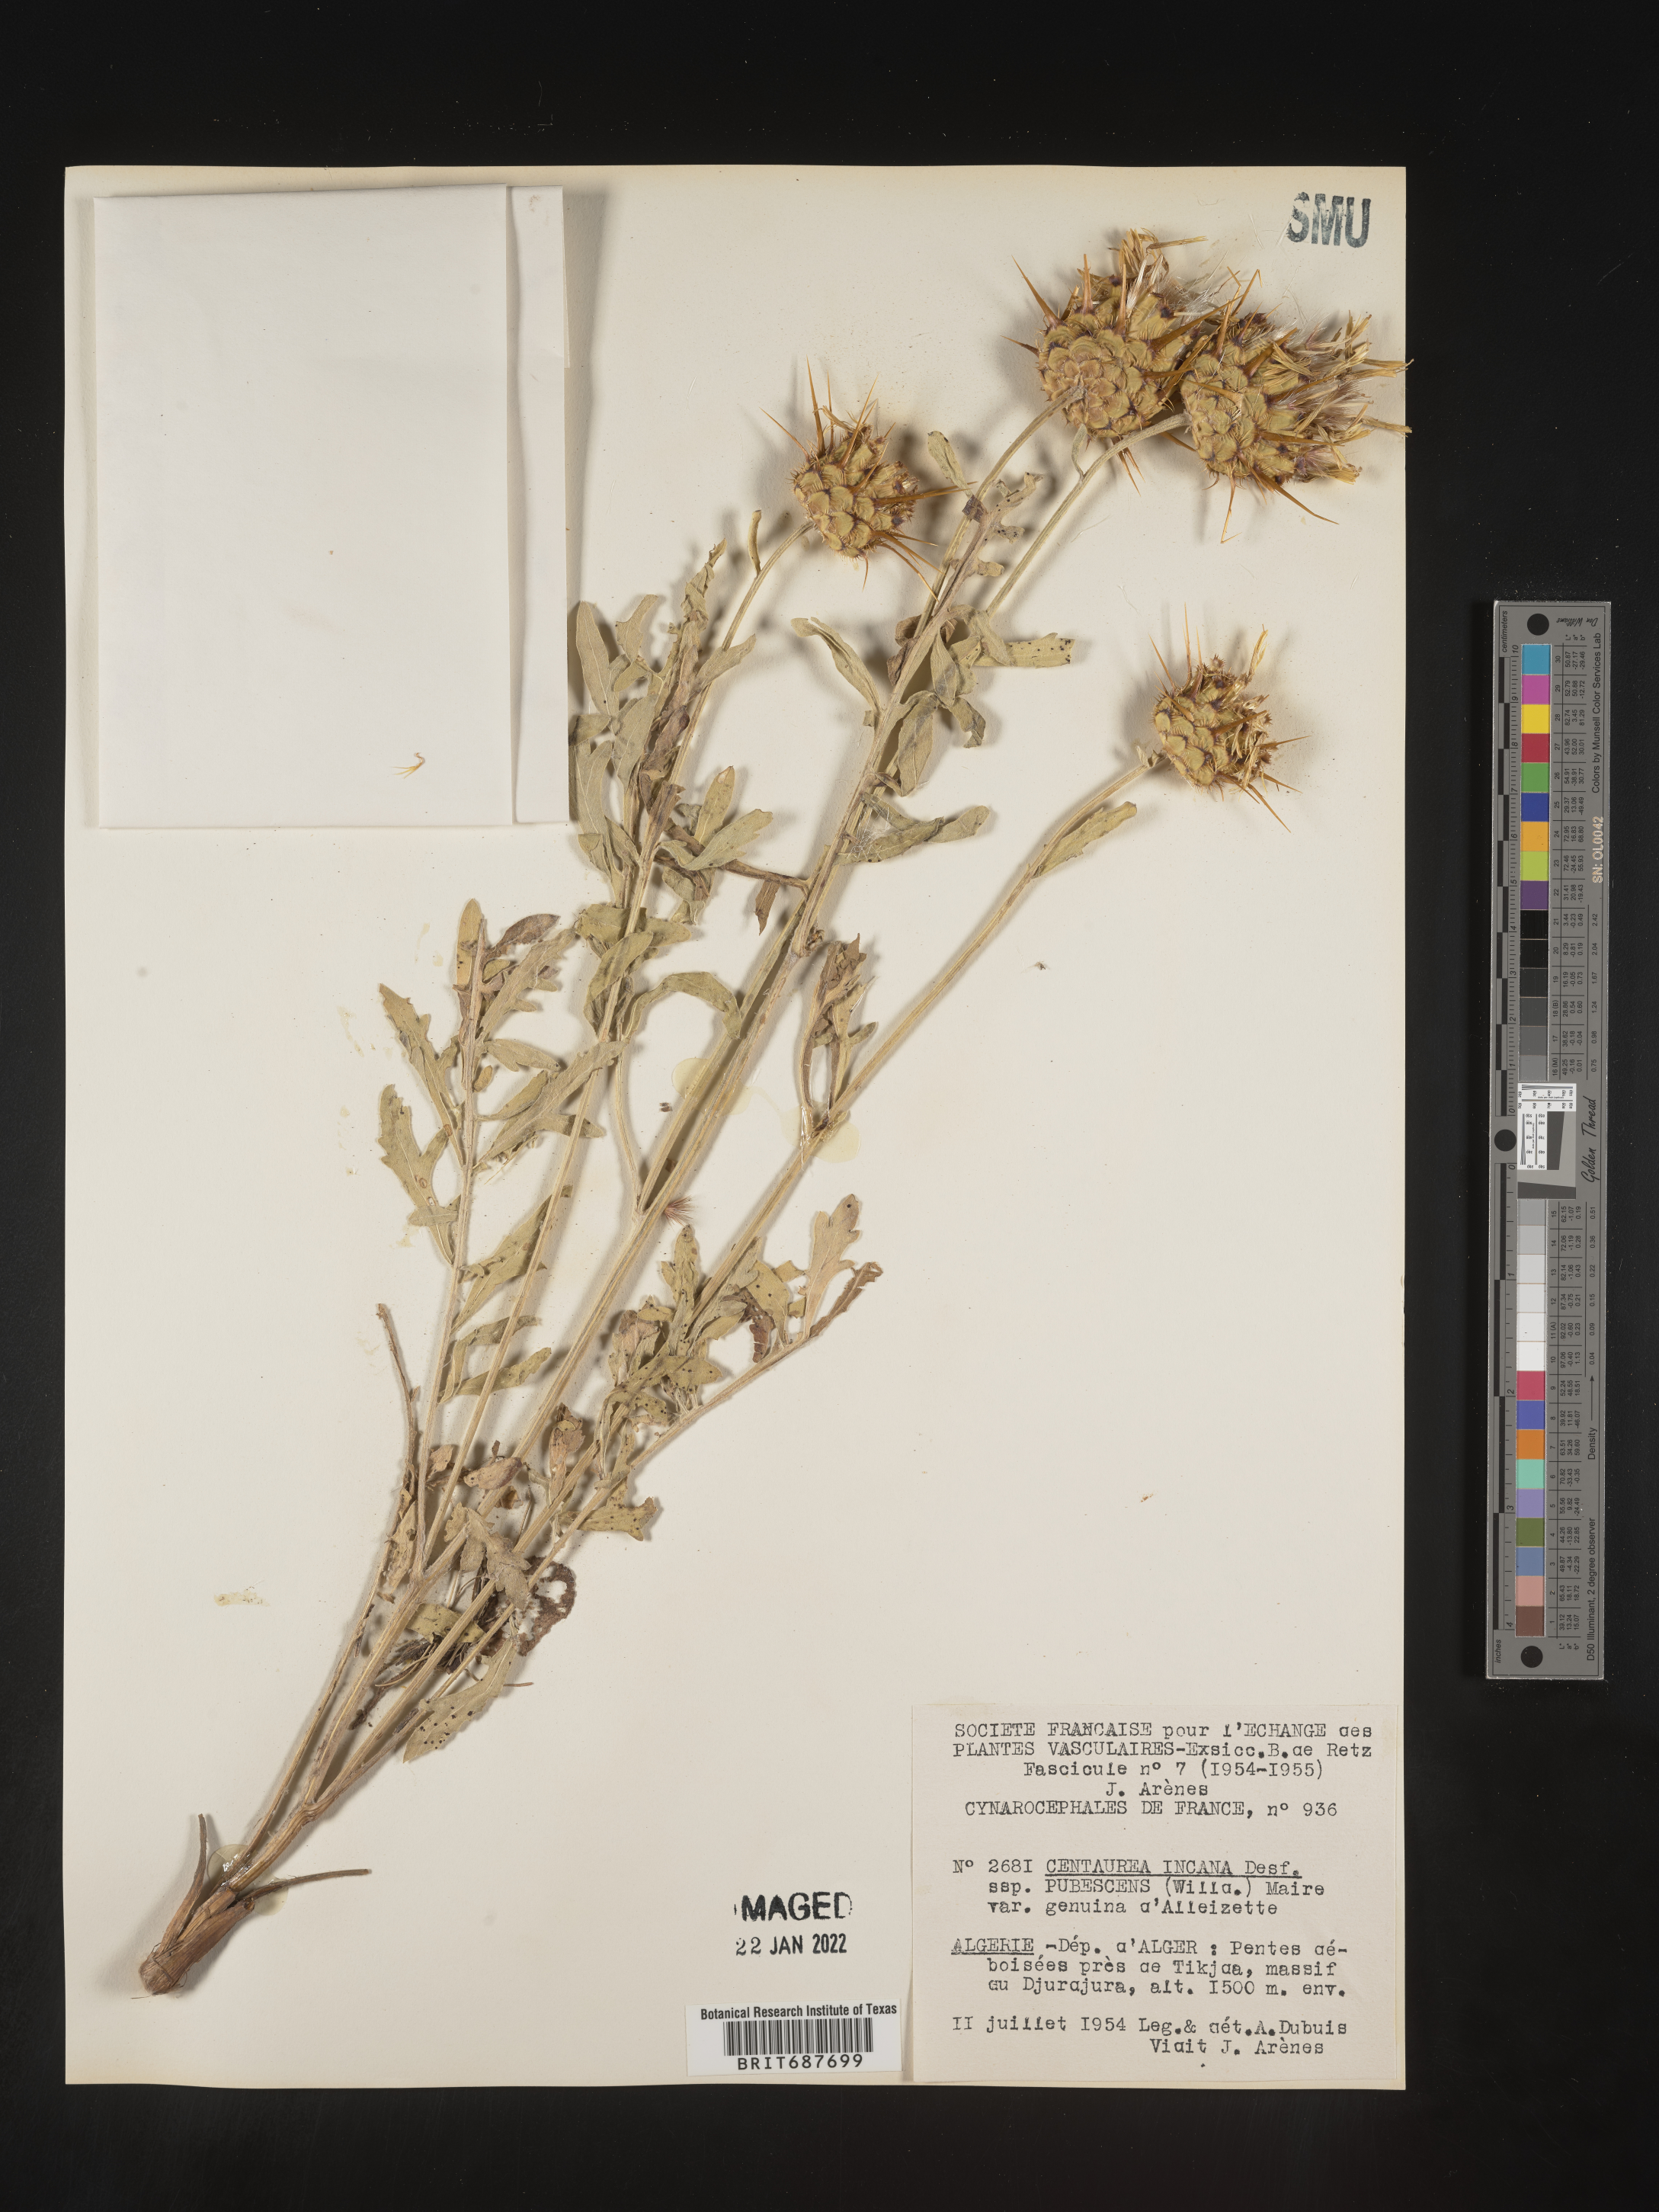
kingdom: Plantae
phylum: Tracheophyta
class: Magnoliopsida
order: Asterales
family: Asteraceae
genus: Centaurea
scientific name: Centaurea
